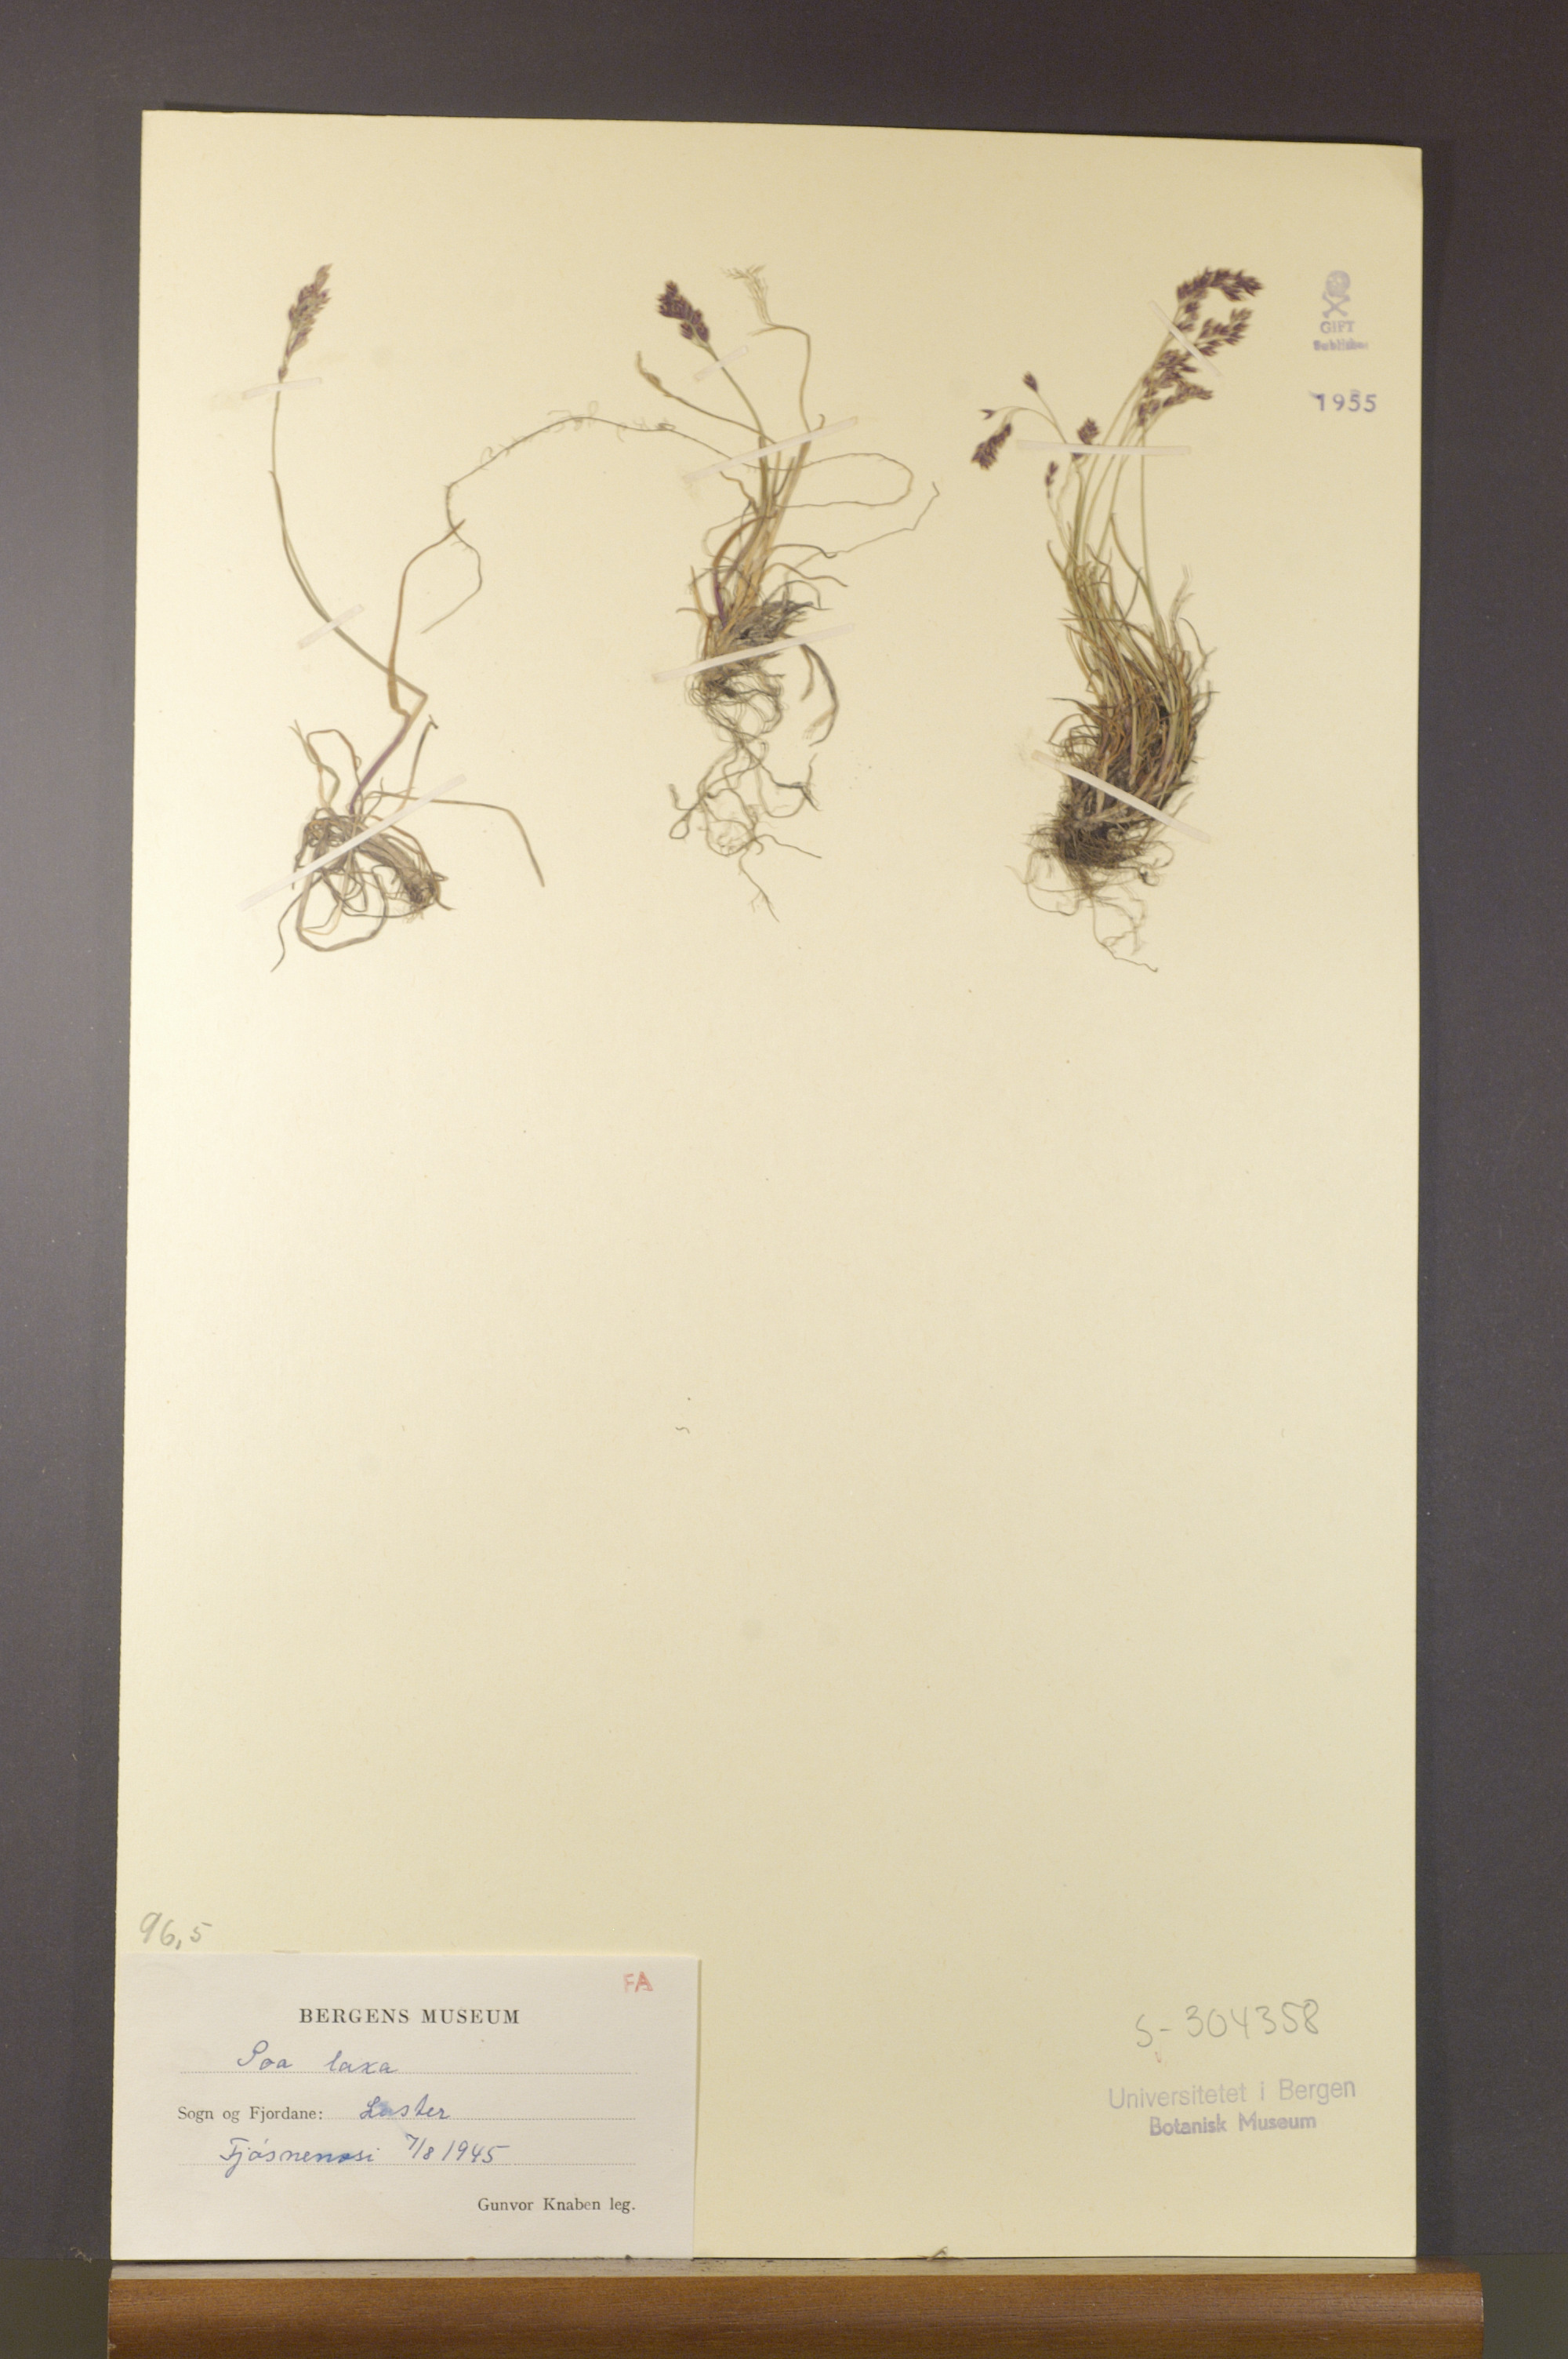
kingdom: Plantae
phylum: Tracheophyta
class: Liliopsida
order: Poales
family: Poaceae
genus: Poa
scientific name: Poa laxa
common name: Lax bluegrass
